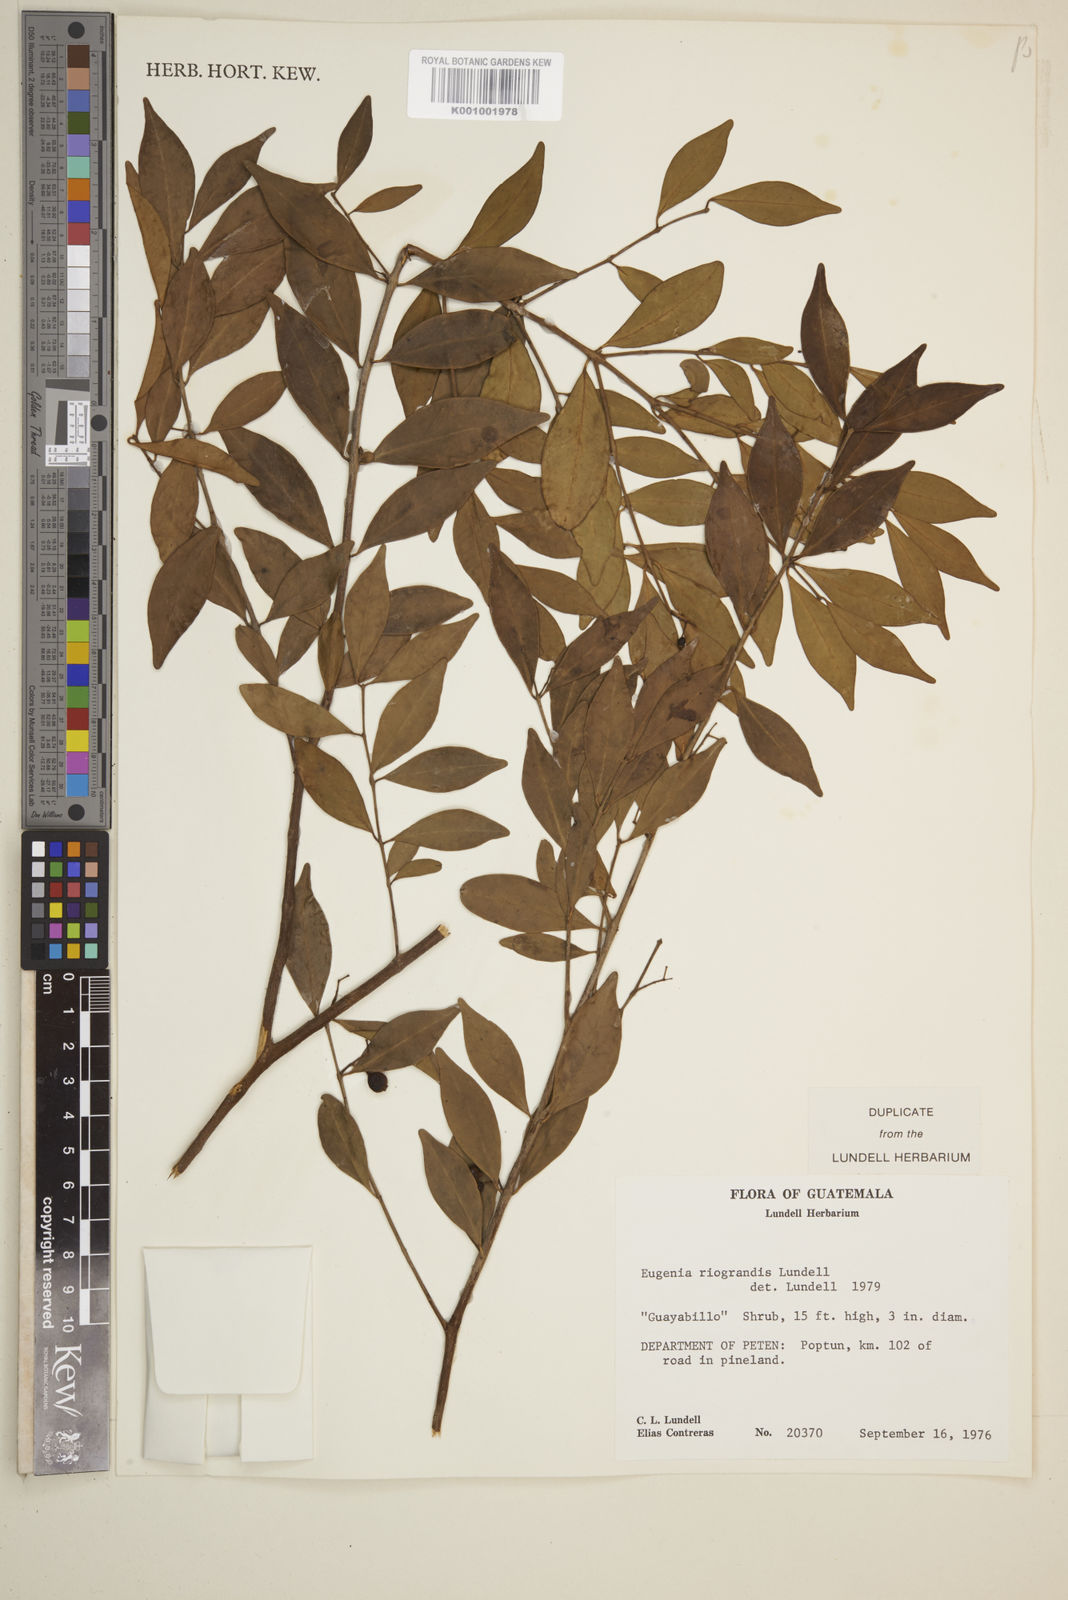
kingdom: Plantae
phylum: Tracheophyta
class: Magnoliopsida
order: Myrtales
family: Myrtaceae
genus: Eugenia
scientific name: Eugenia riograndis
